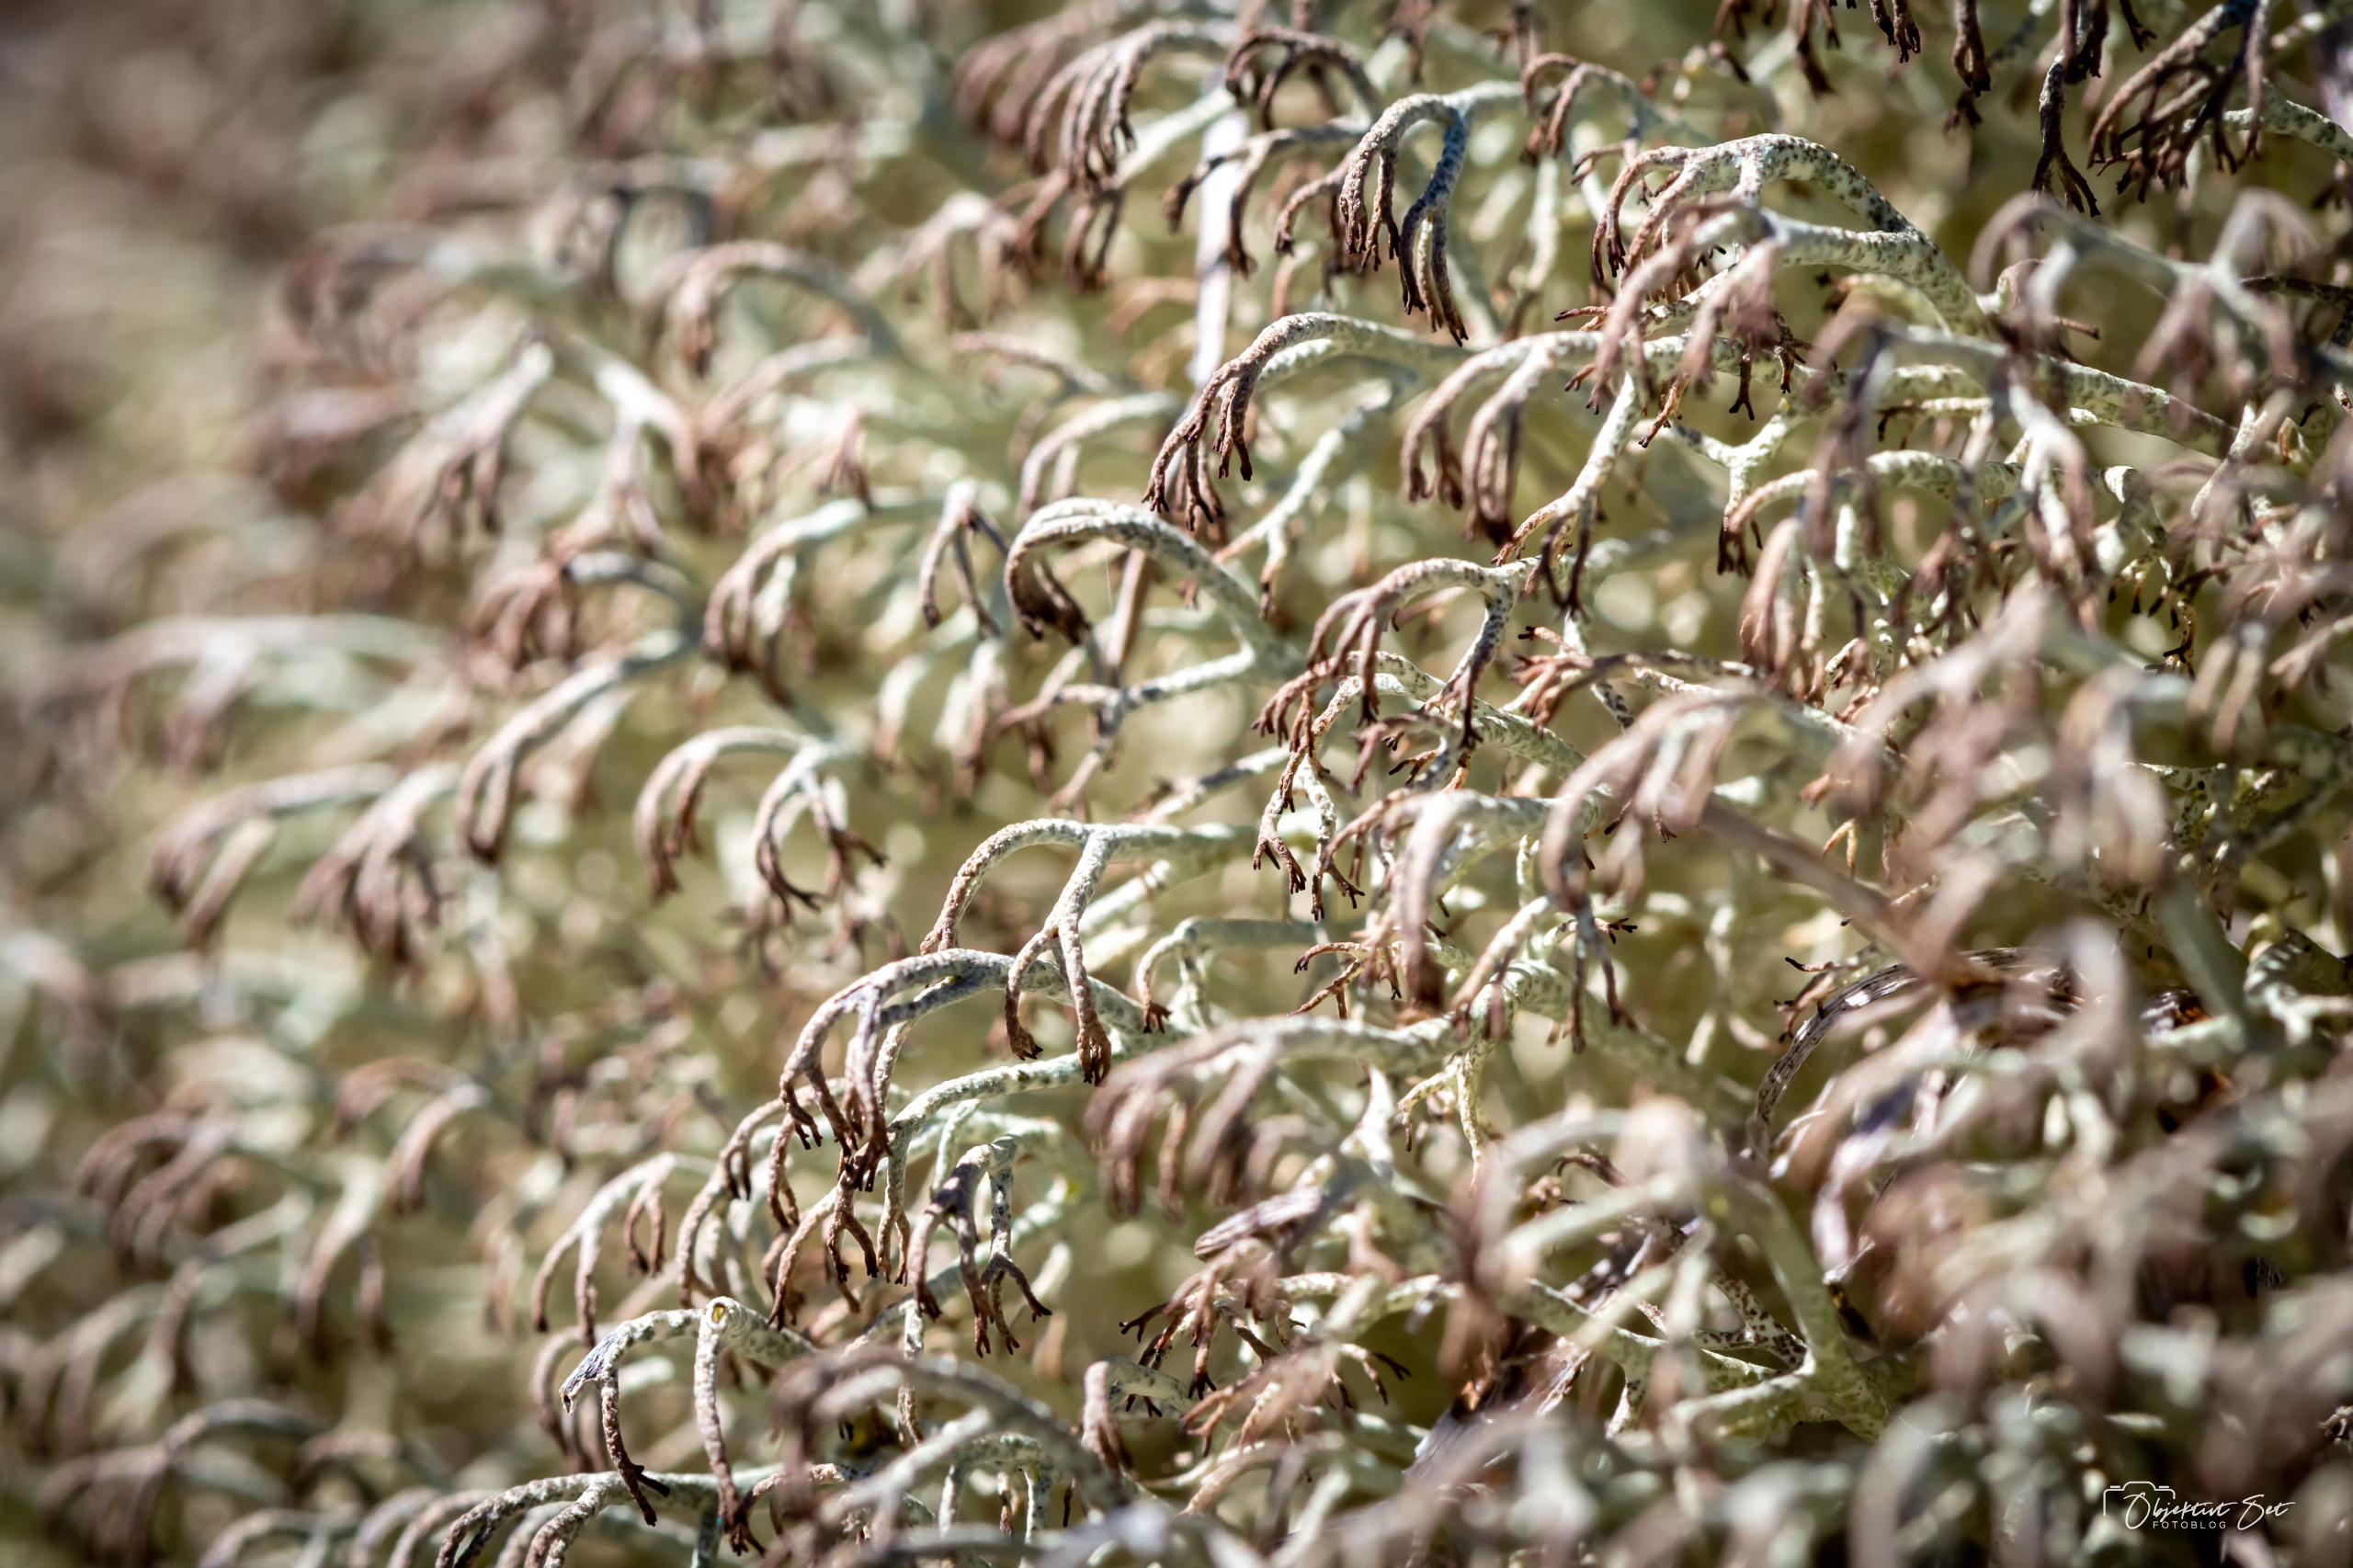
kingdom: Fungi
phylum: Ascomycota
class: Lecanoromycetes
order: Lecanorales
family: Cladoniaceae
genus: Cladonia
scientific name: Cladonia ciliata
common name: Spinkel rensdyrlav
